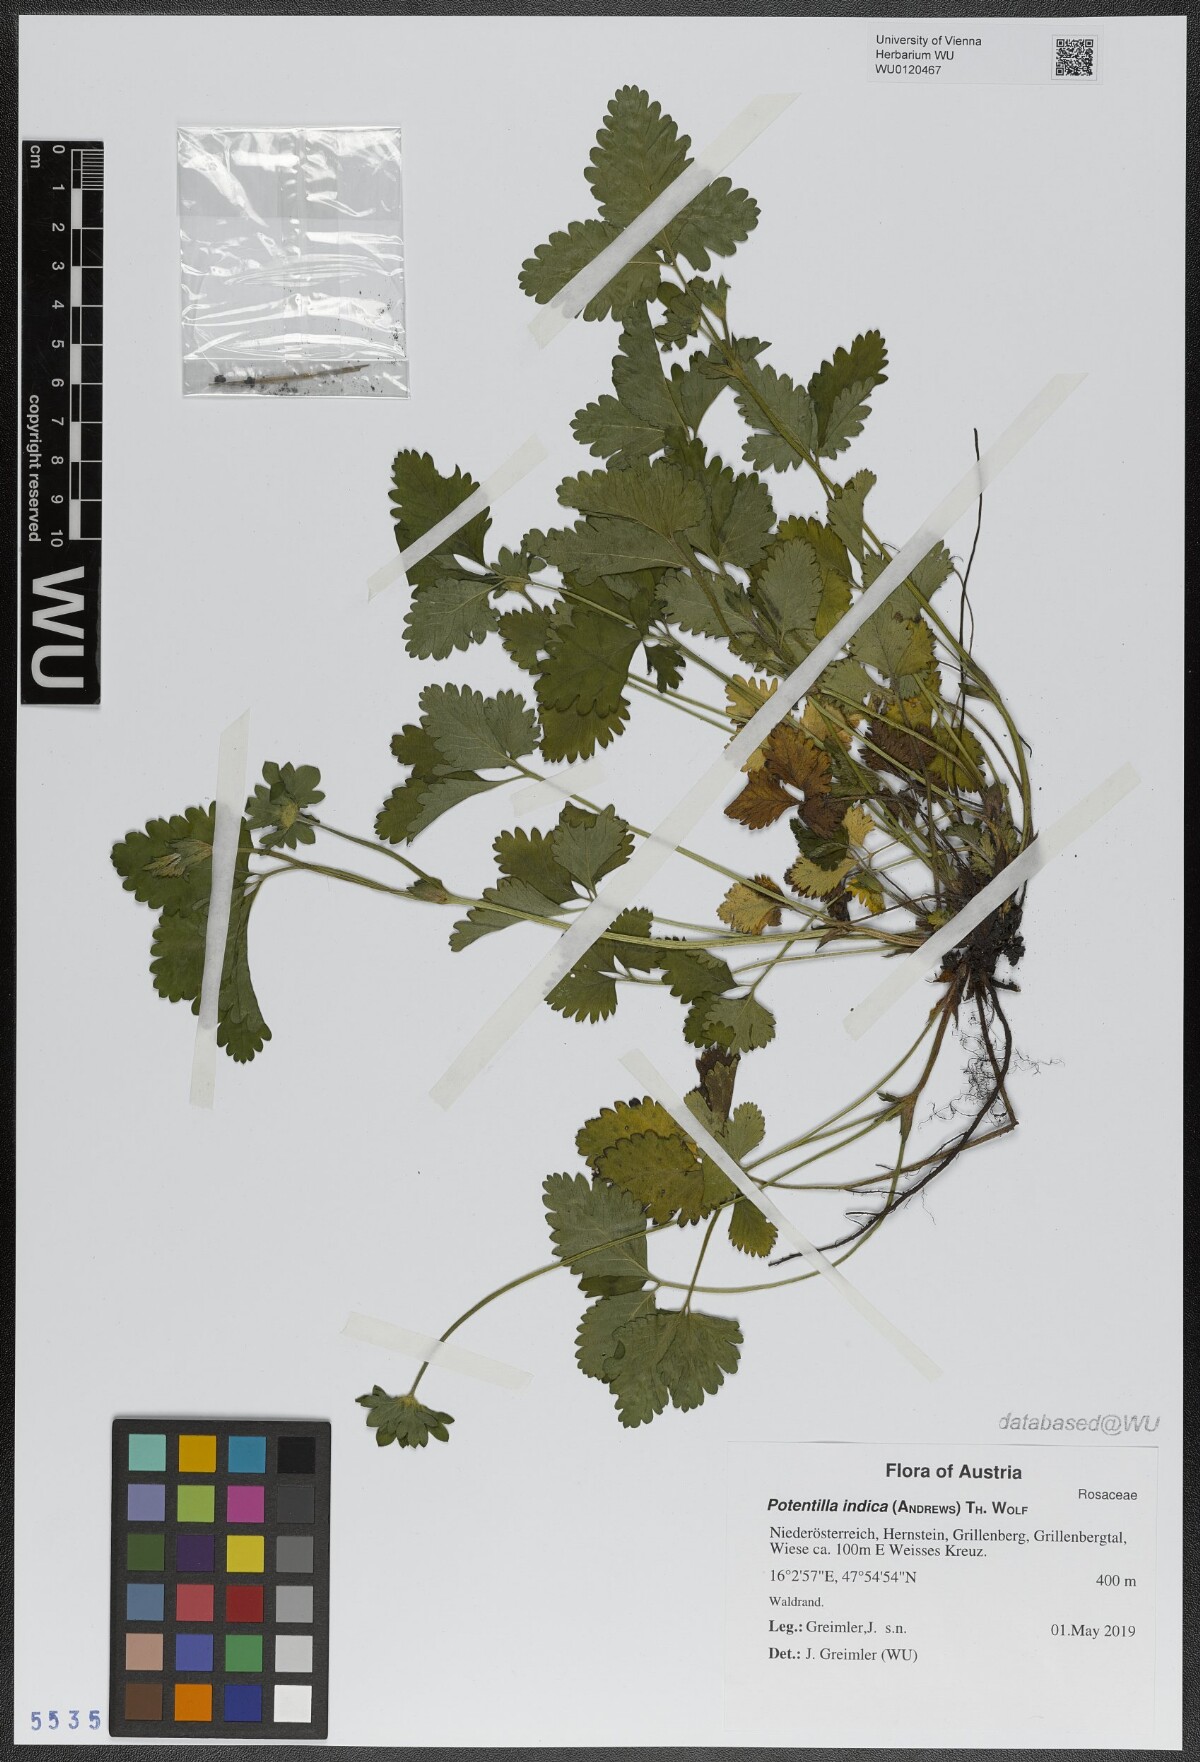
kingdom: Plantae
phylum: Tracheophyta
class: Magnoliopsida
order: Rosales
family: Rosaceae
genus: Potentilla
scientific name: Potentilla indica
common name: Yellow-flowered strawberry
